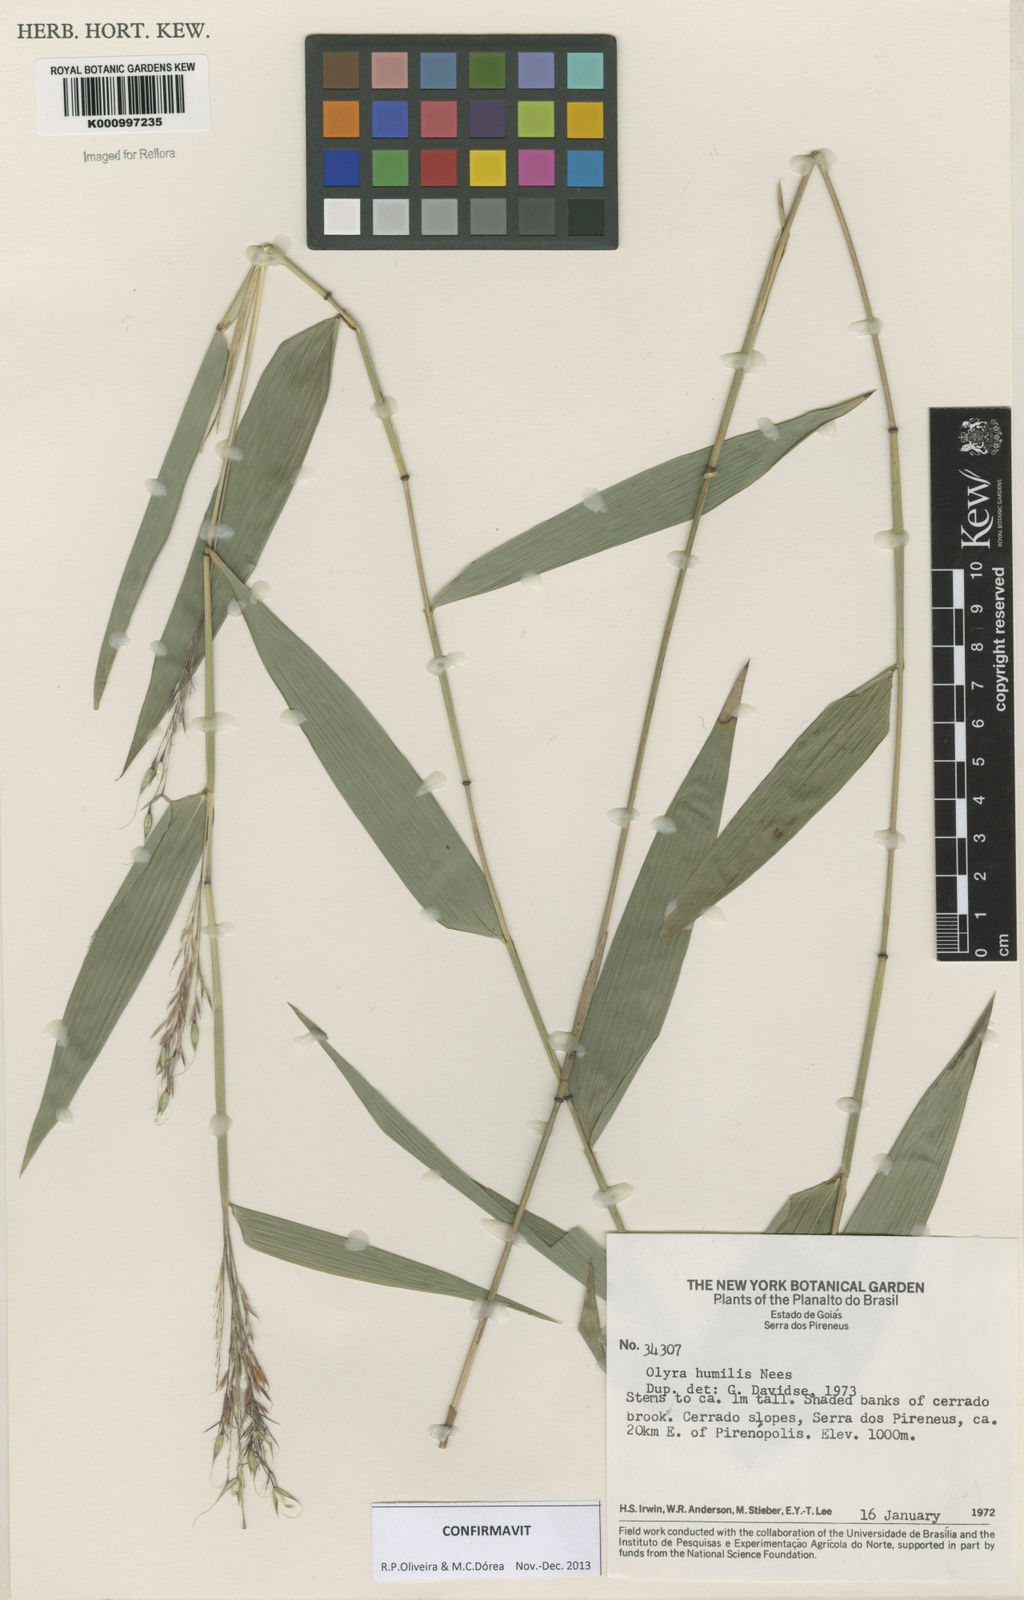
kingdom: Plantae
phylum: Tracheophyta
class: Liliopsida
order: Poales
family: Poaceae
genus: Olyra
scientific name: Olyra humilis
